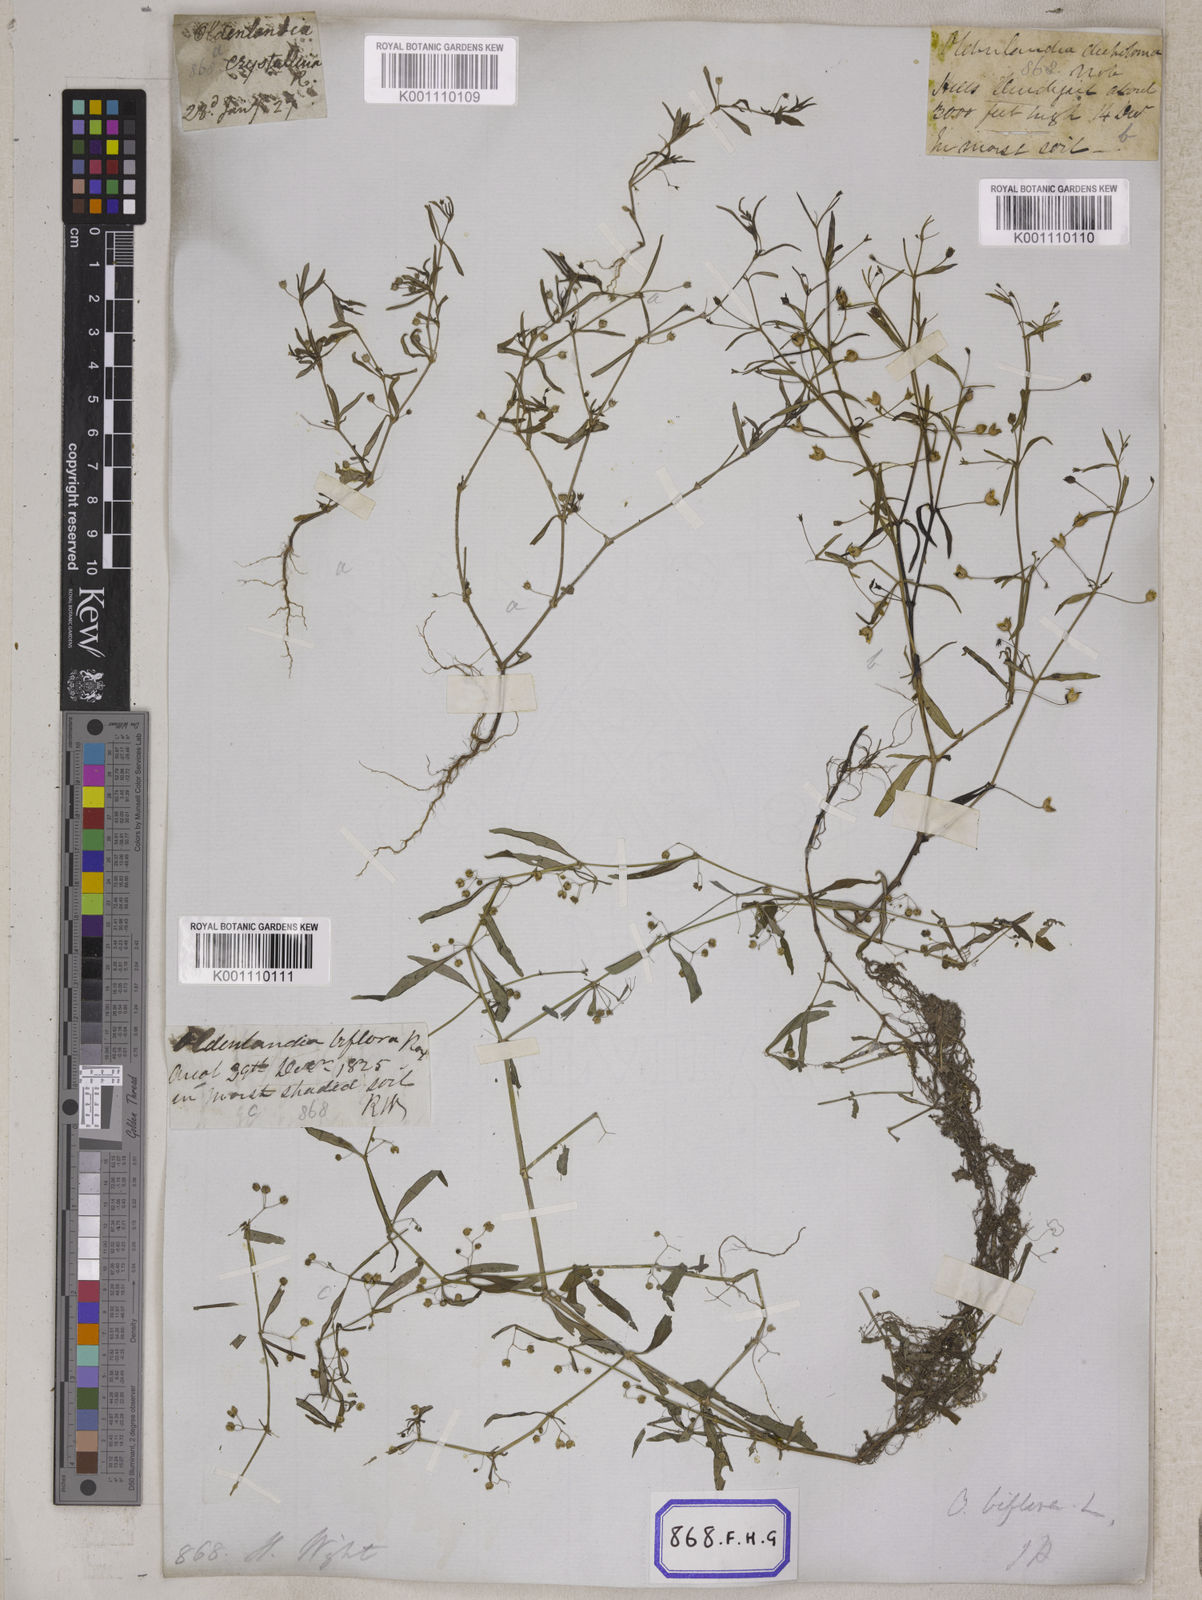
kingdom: Plantae
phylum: Tracheophyta
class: Magnoliopsida
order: Gentianales
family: Rubiaceae
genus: Hedyotis
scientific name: Hedyotis
